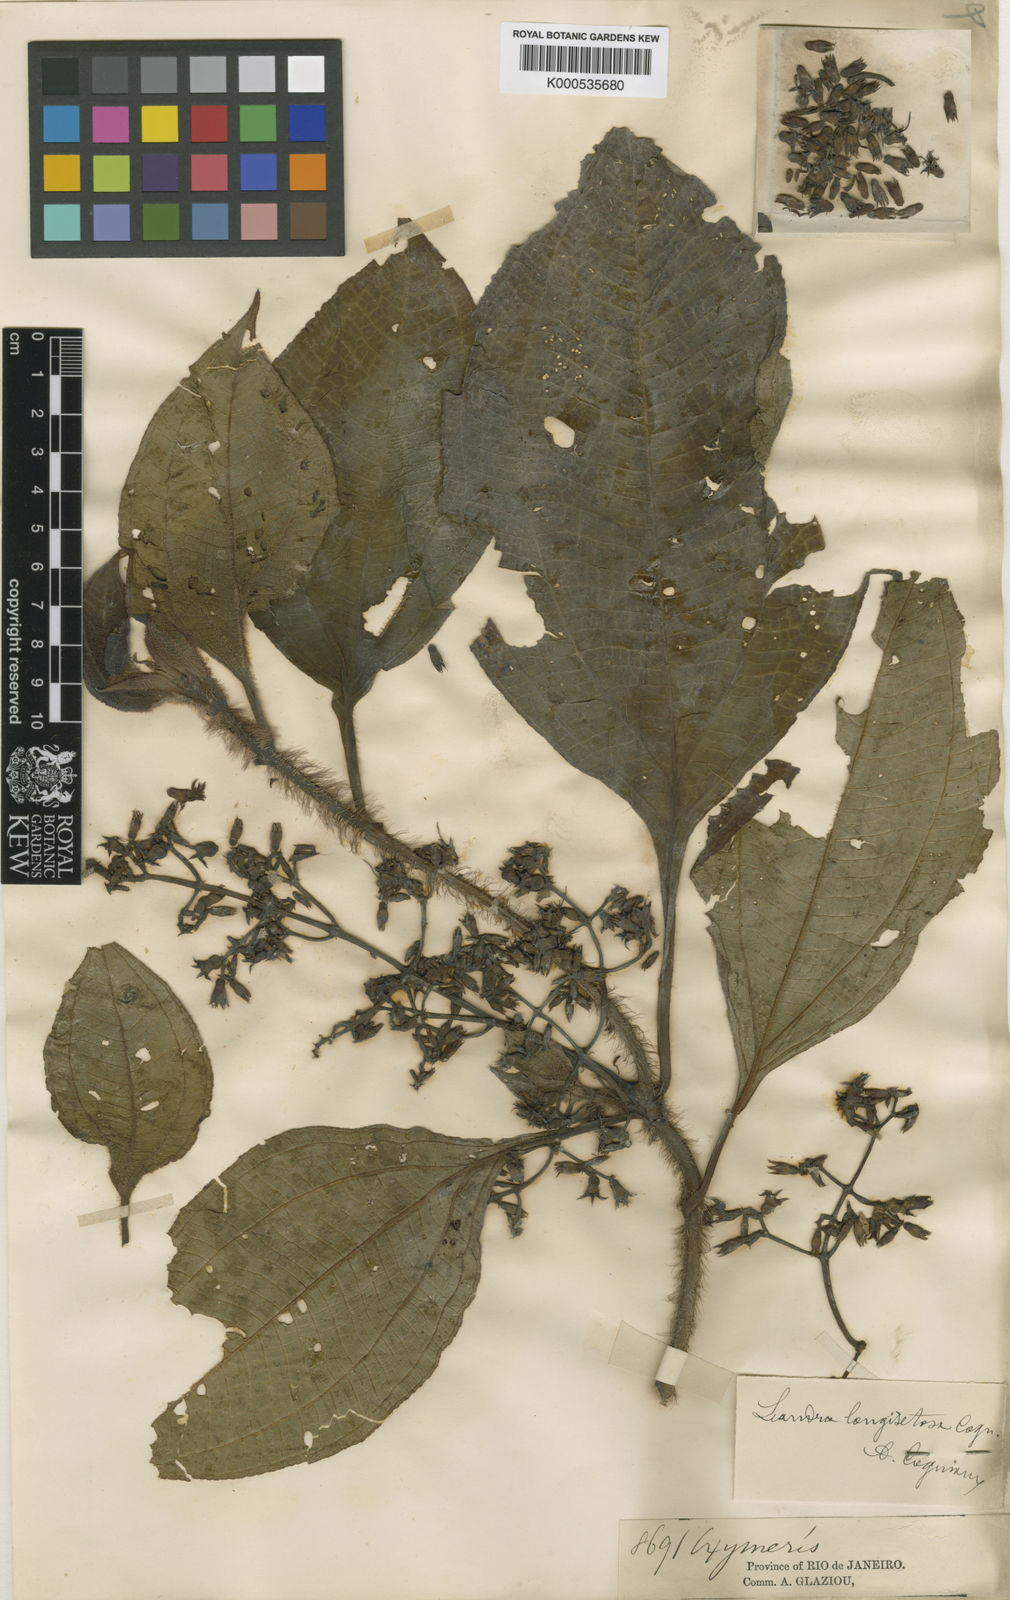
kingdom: Plantae
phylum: Tracheophyta
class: Magnoliopsida
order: Myrtales
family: Melastomataceae
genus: Miconia
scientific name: Miconia oocarpa
